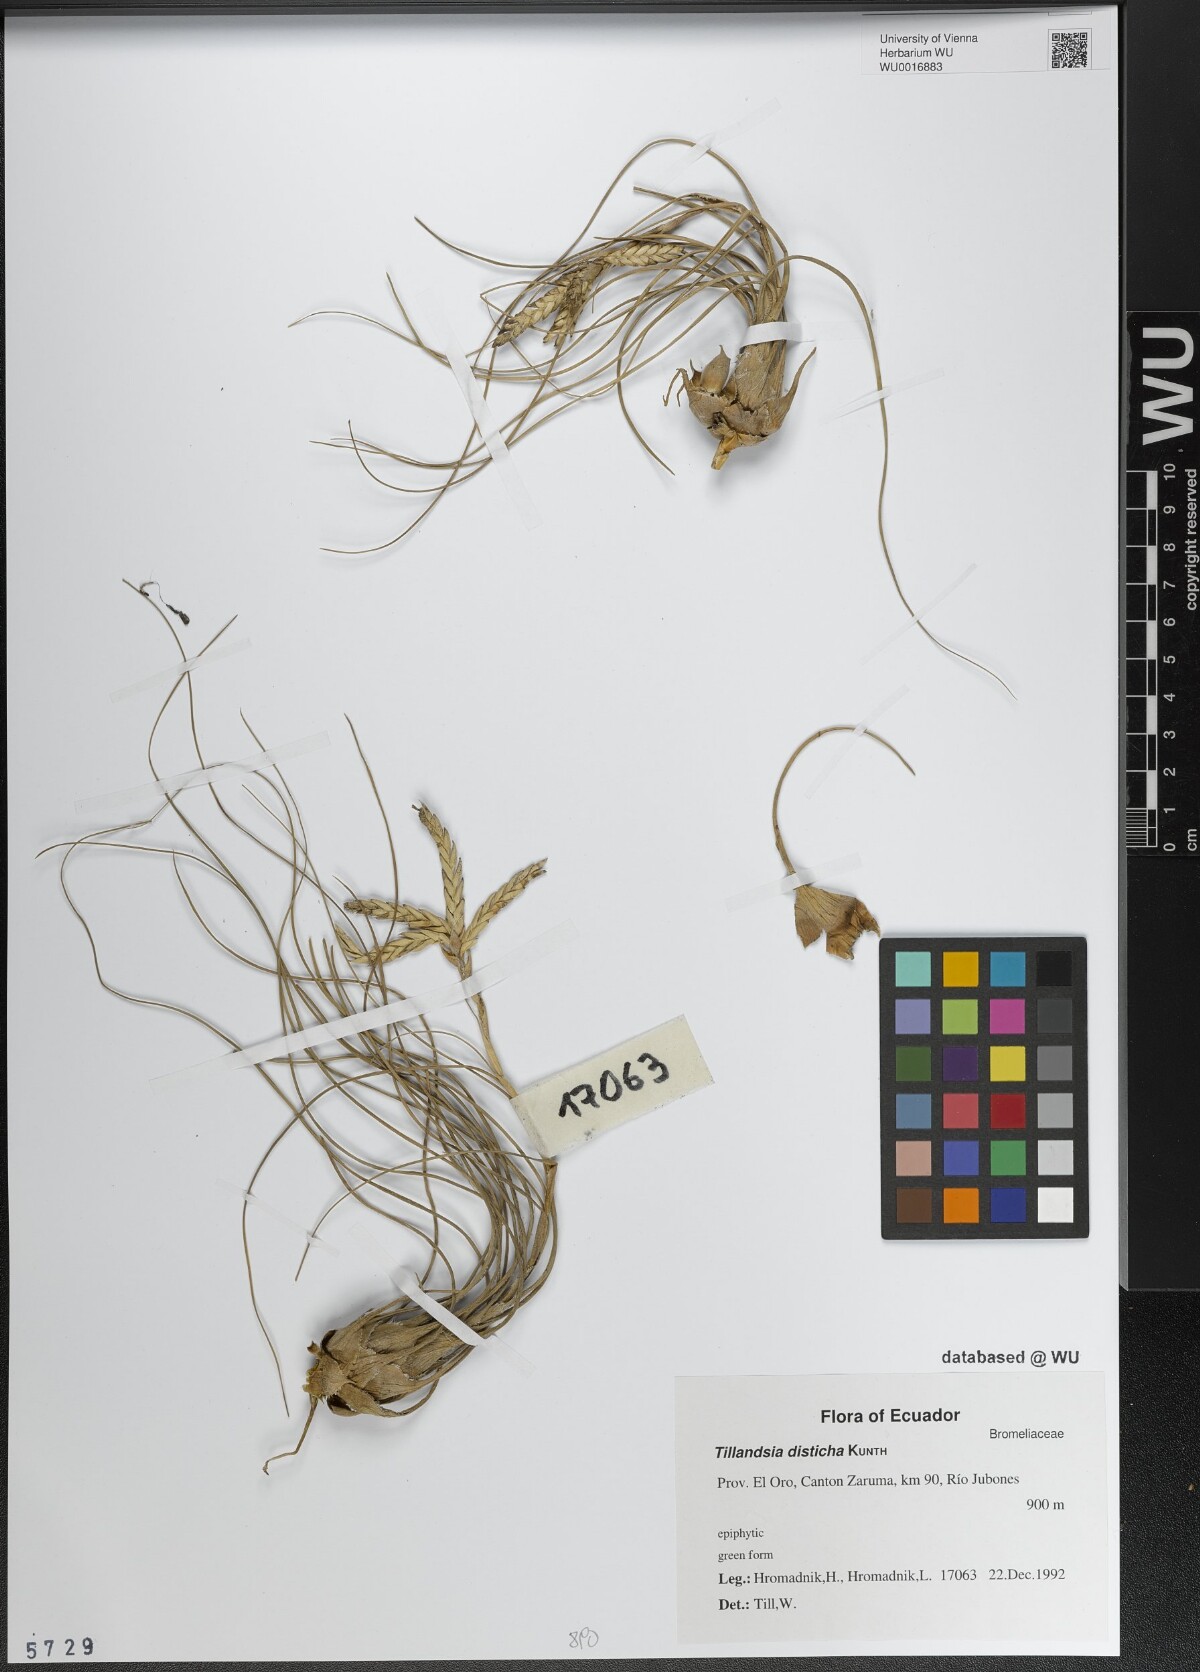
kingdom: Plantae
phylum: Tracheophyta
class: Liliopsida
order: Poales
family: Bromeliaceae
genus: Tillandsia
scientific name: Tillandsia disticha
